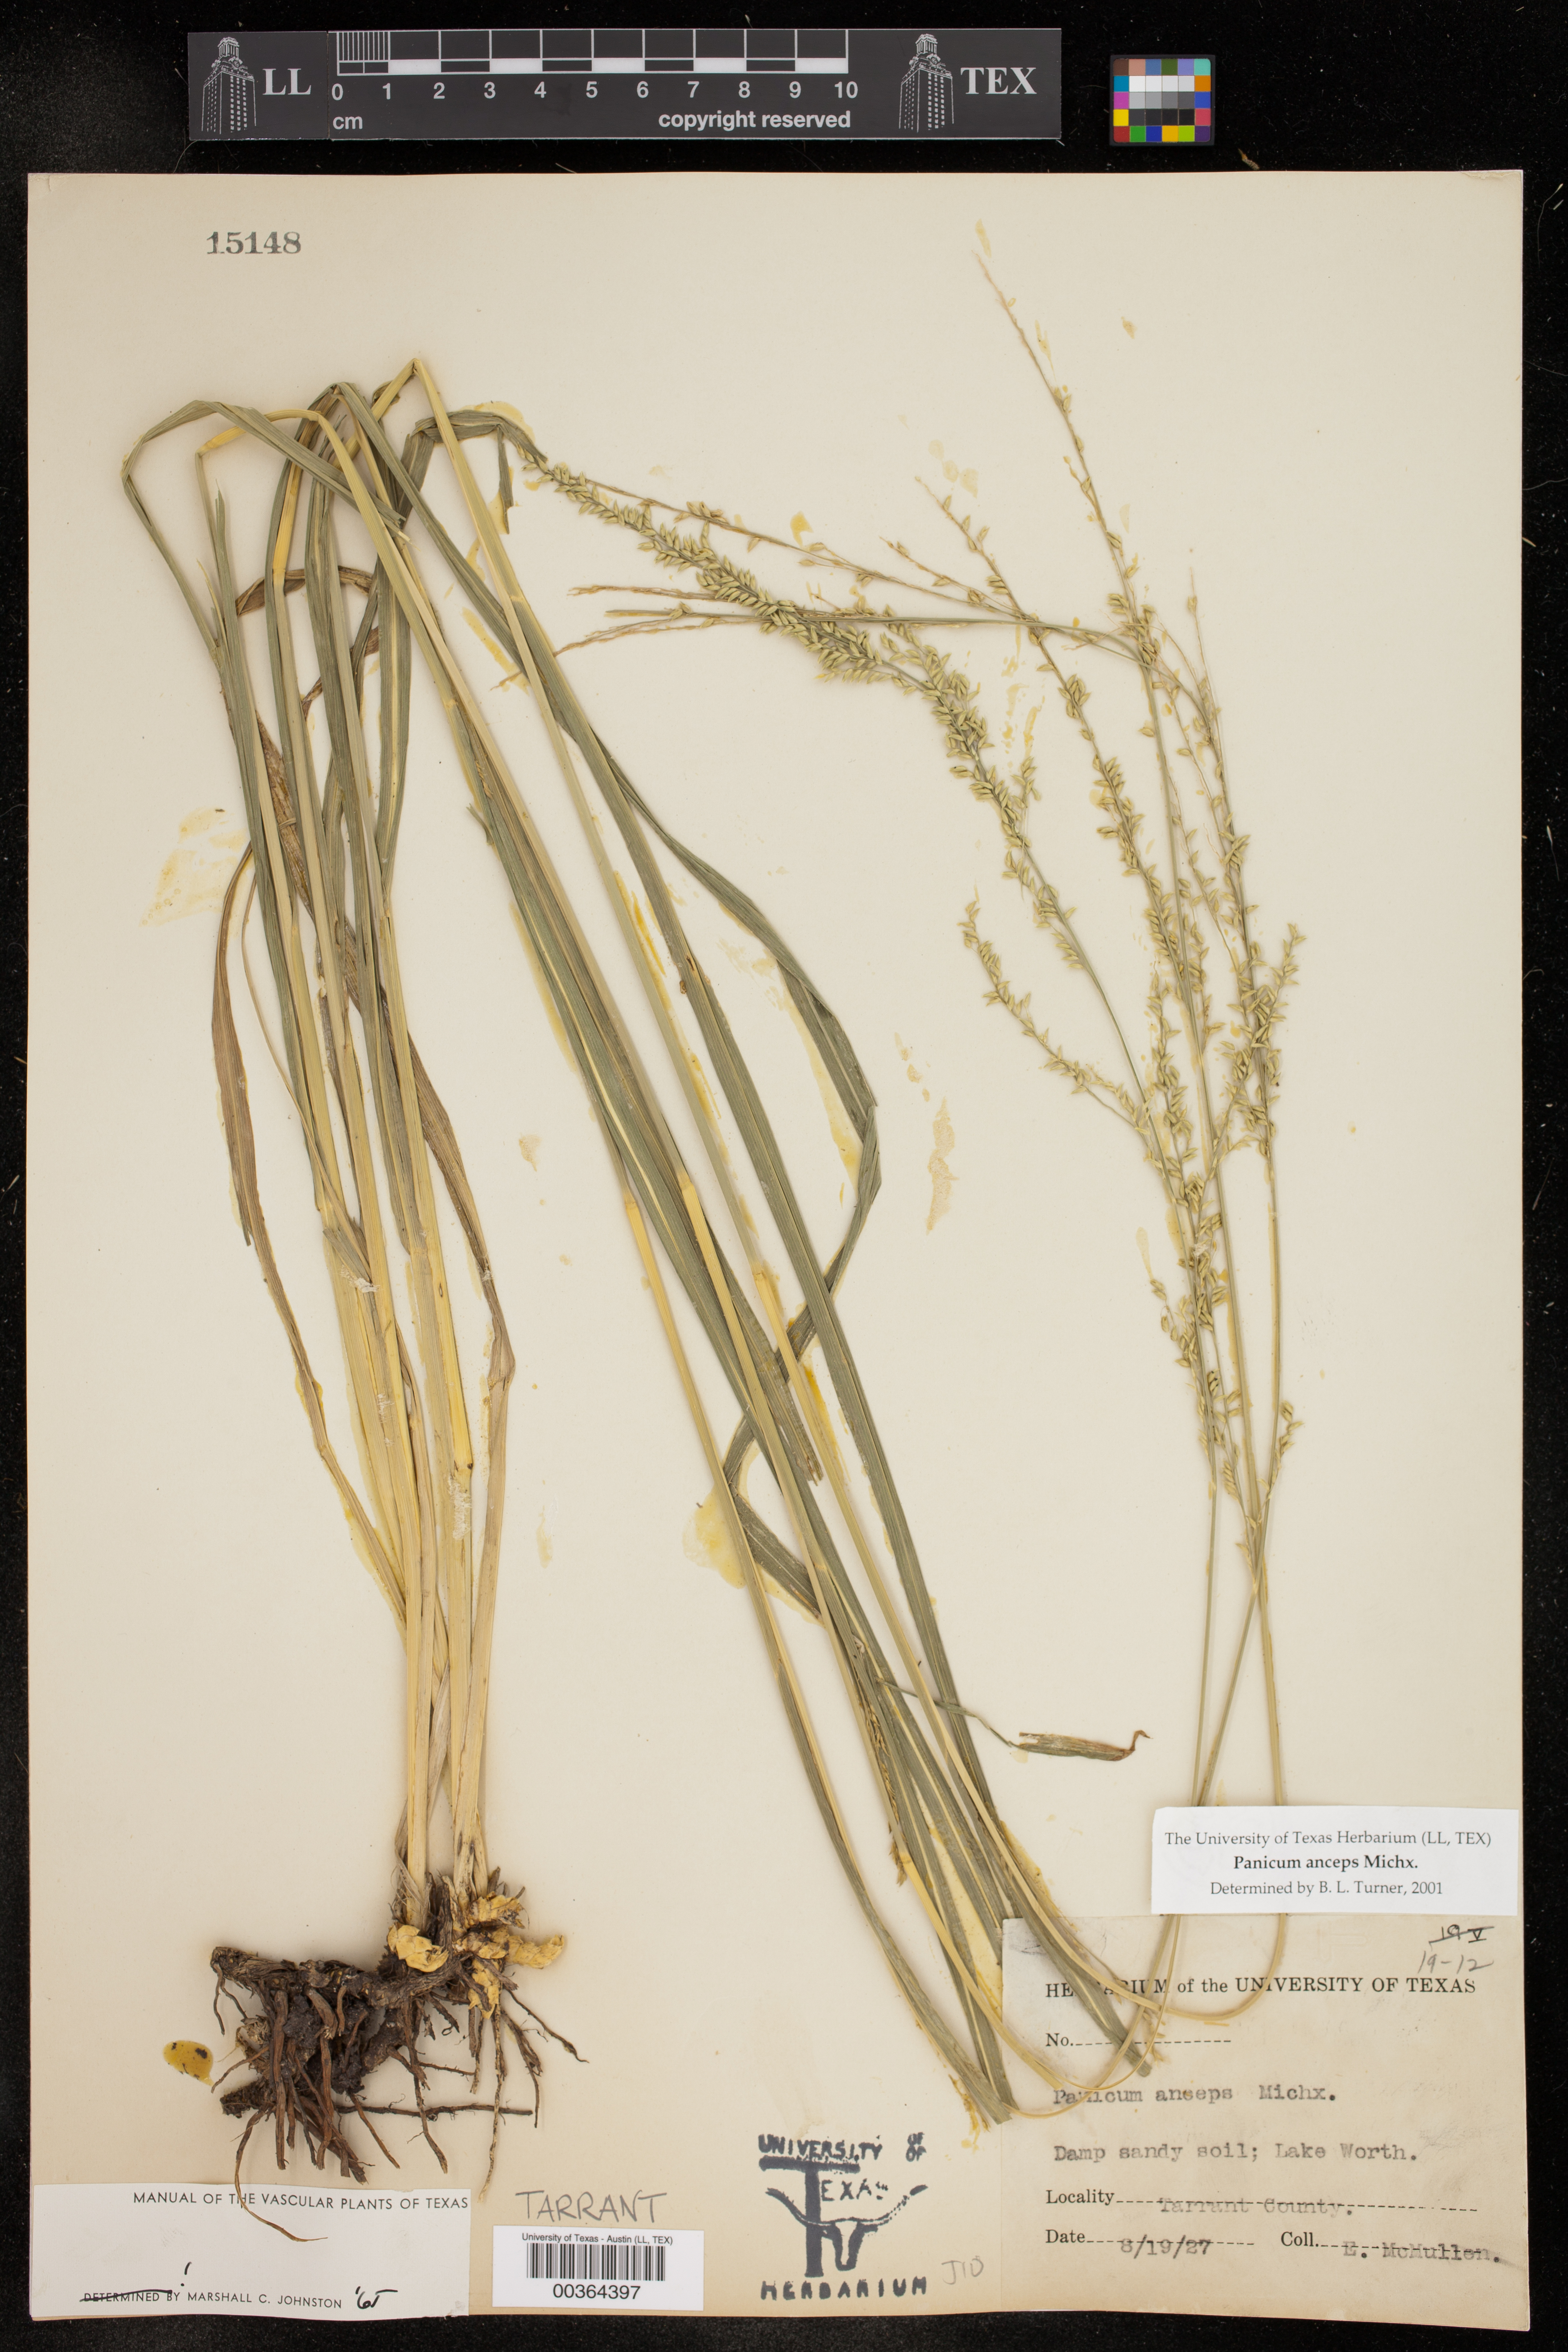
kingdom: Plantae
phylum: Tracheophyta
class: Liliopsida
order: Poales
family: Poaceae
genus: Coleataenia
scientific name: Coleataenia anceps
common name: Beaked panic grass
